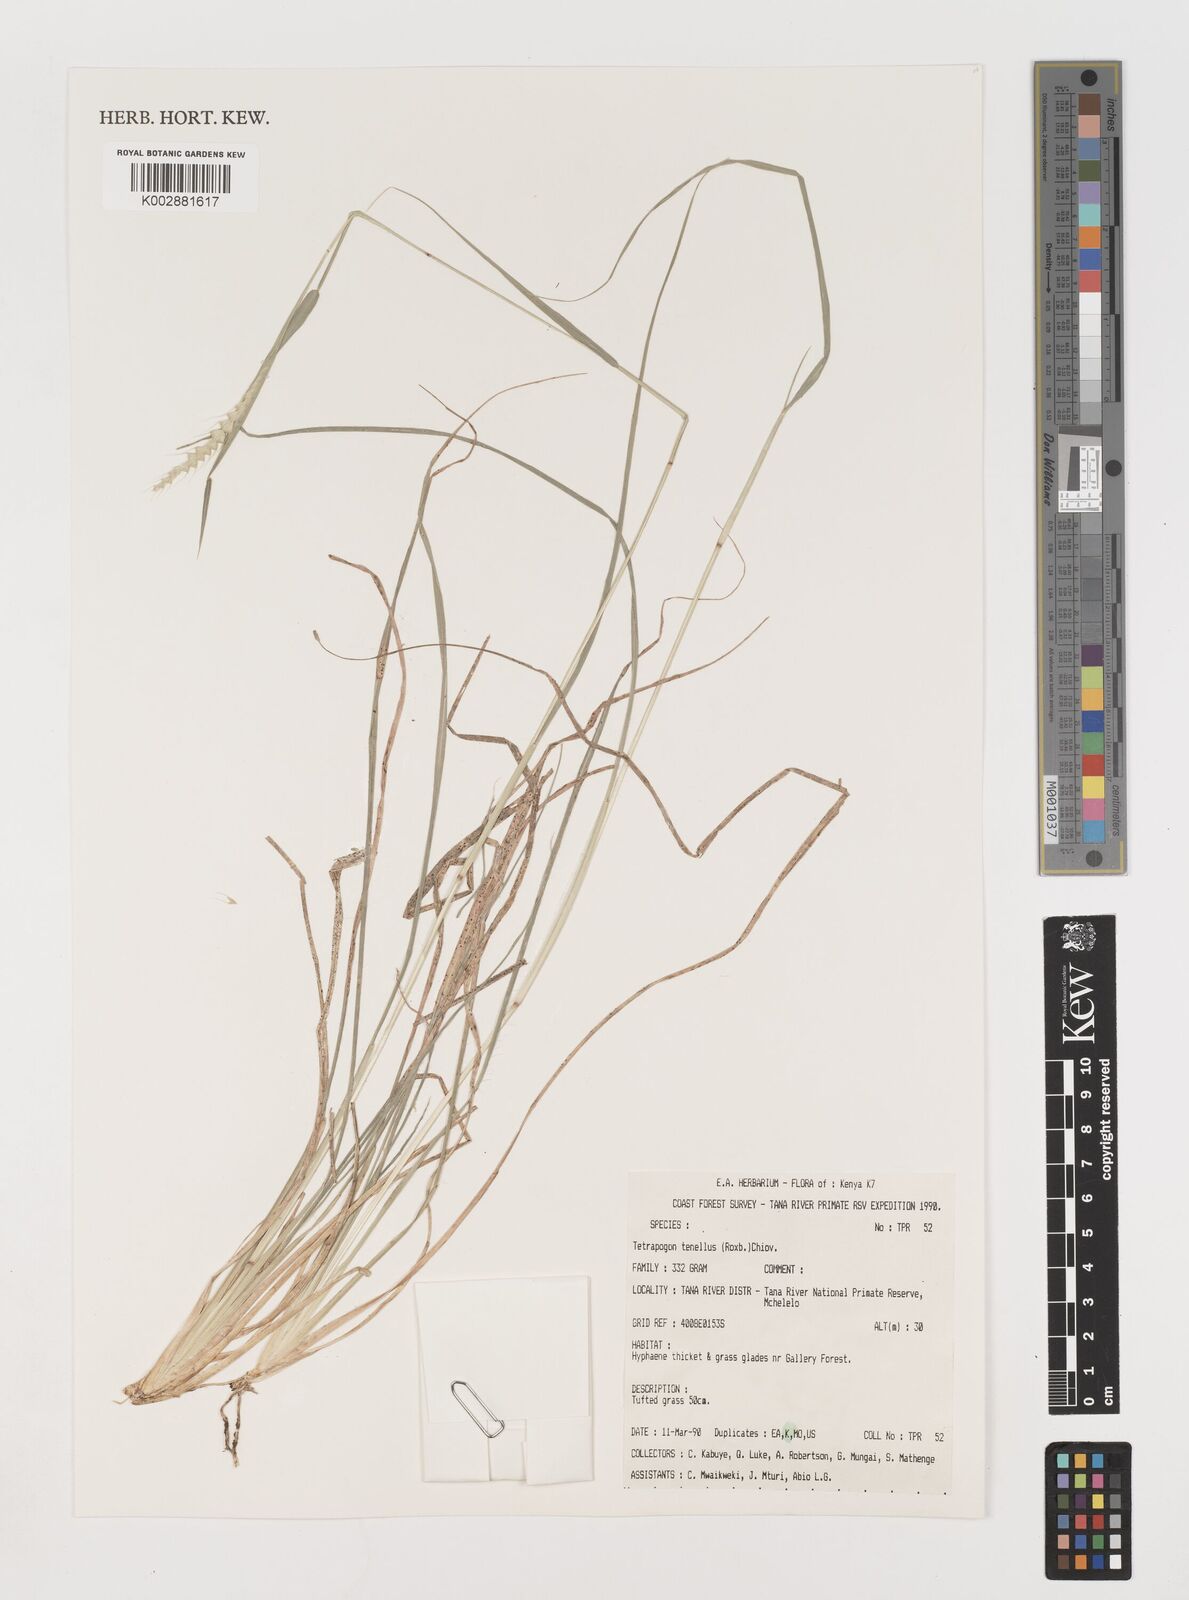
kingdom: Plantae
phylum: Tracheophyta
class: Liliopsida
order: Poales
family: Poaceae
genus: Tetrapogon
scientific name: Tetrapogon tenellus
